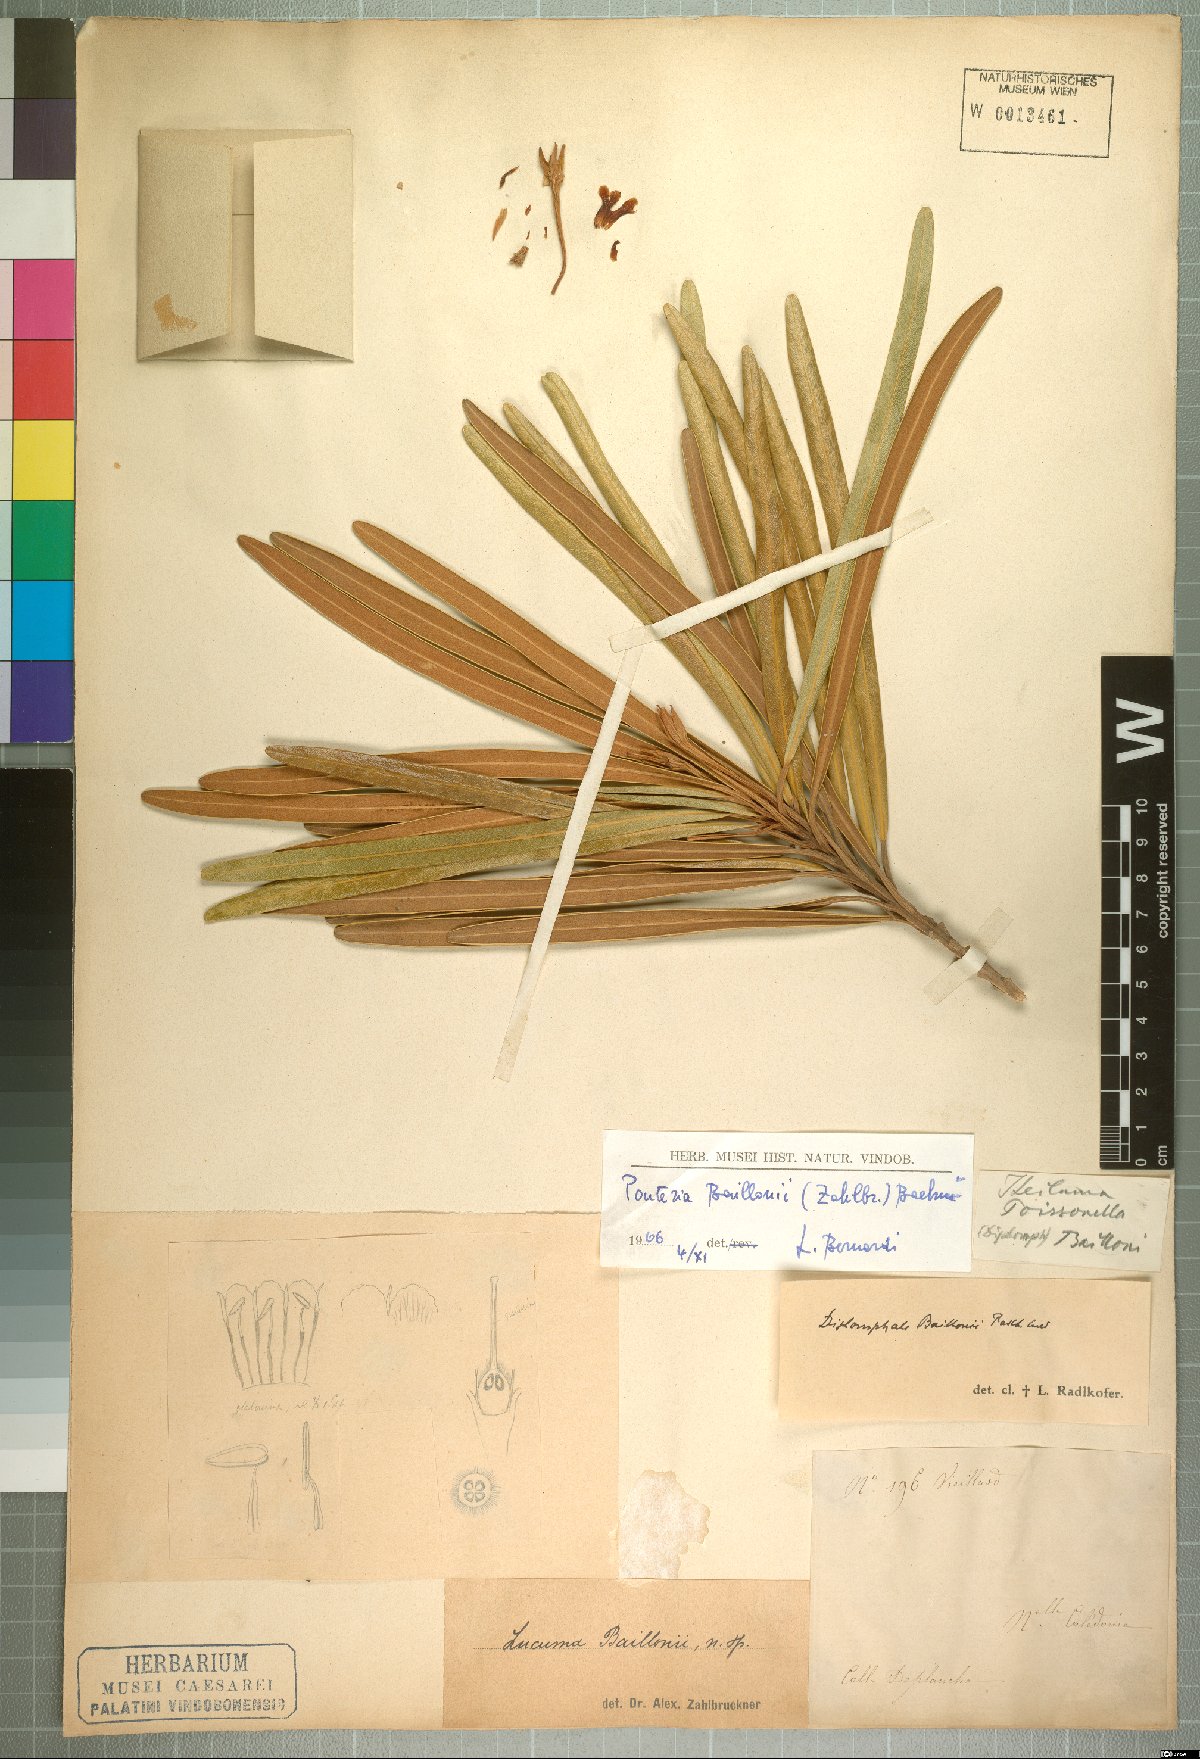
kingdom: Plantae
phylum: Tracheophyta
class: Magnoliopsida
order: Ericales
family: Sapotaceae
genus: Planchonella
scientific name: Planchonella baillonii
